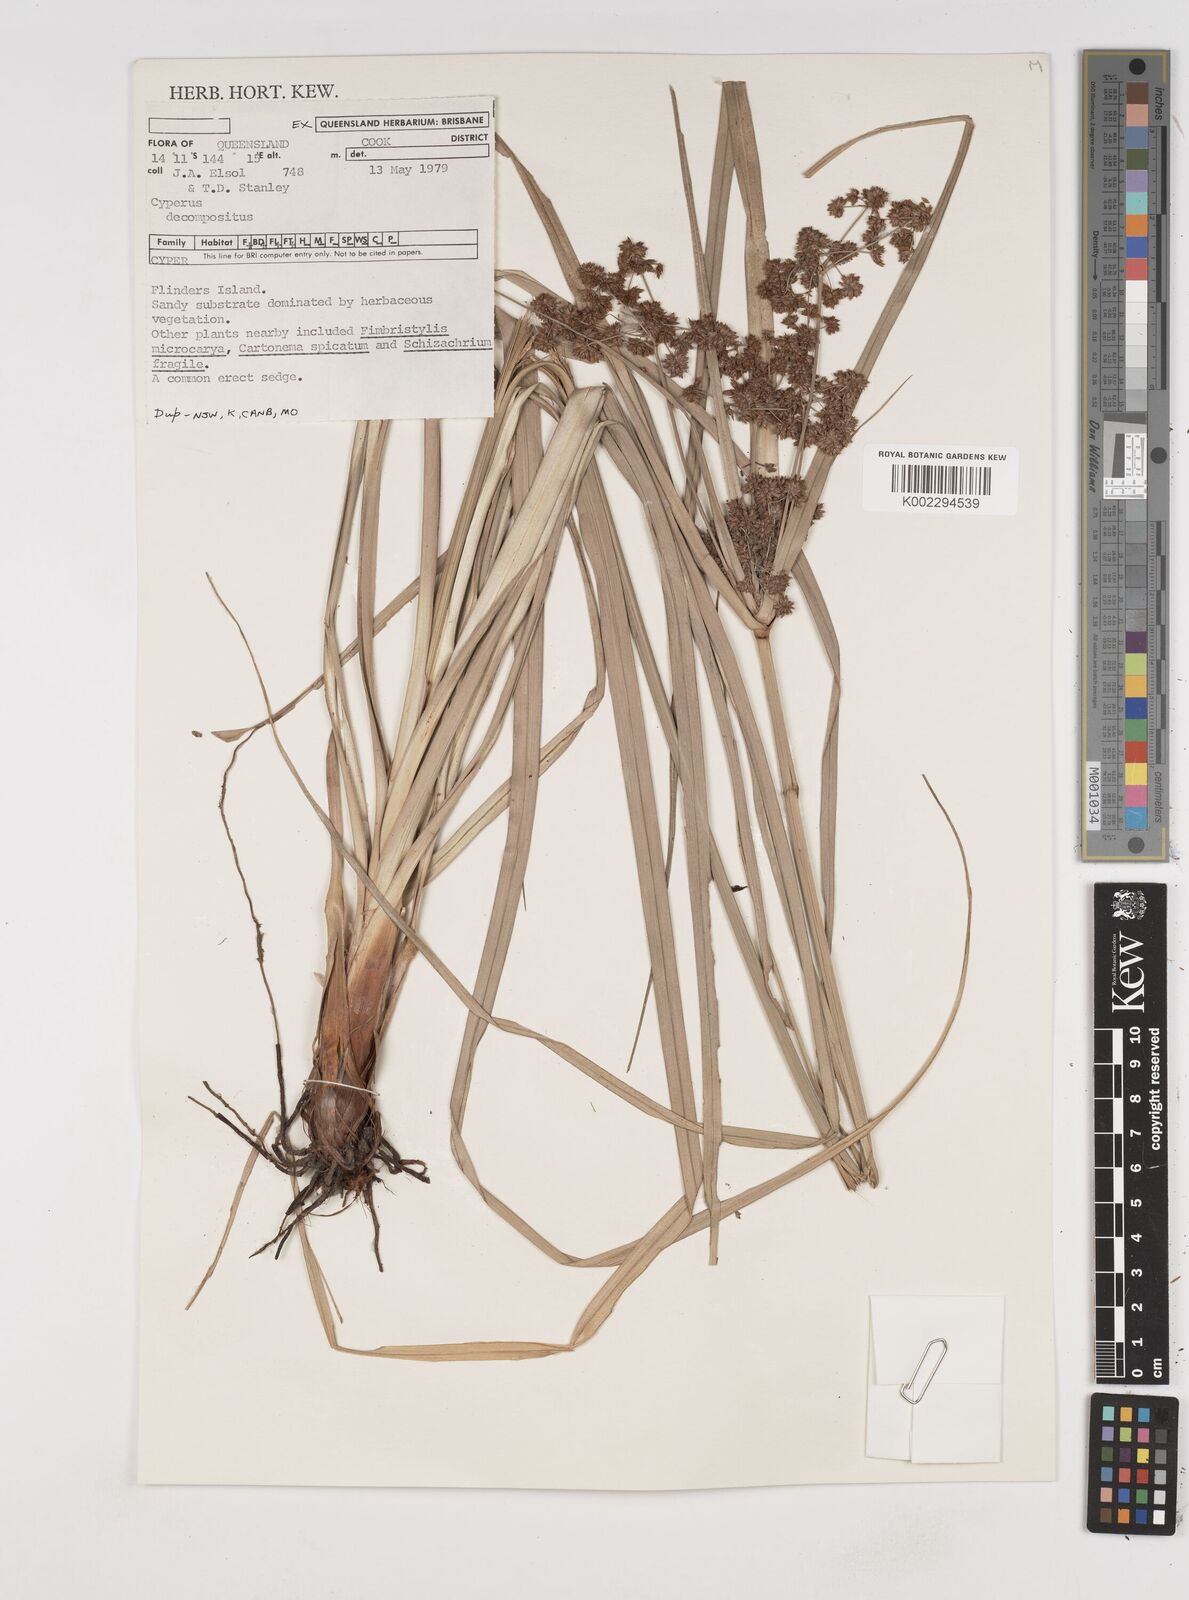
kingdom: Plantae
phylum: Tracheophyta
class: Liliopsida
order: Poales
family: Cyperaceae
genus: Cyperus
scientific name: Cyperus decompositus
